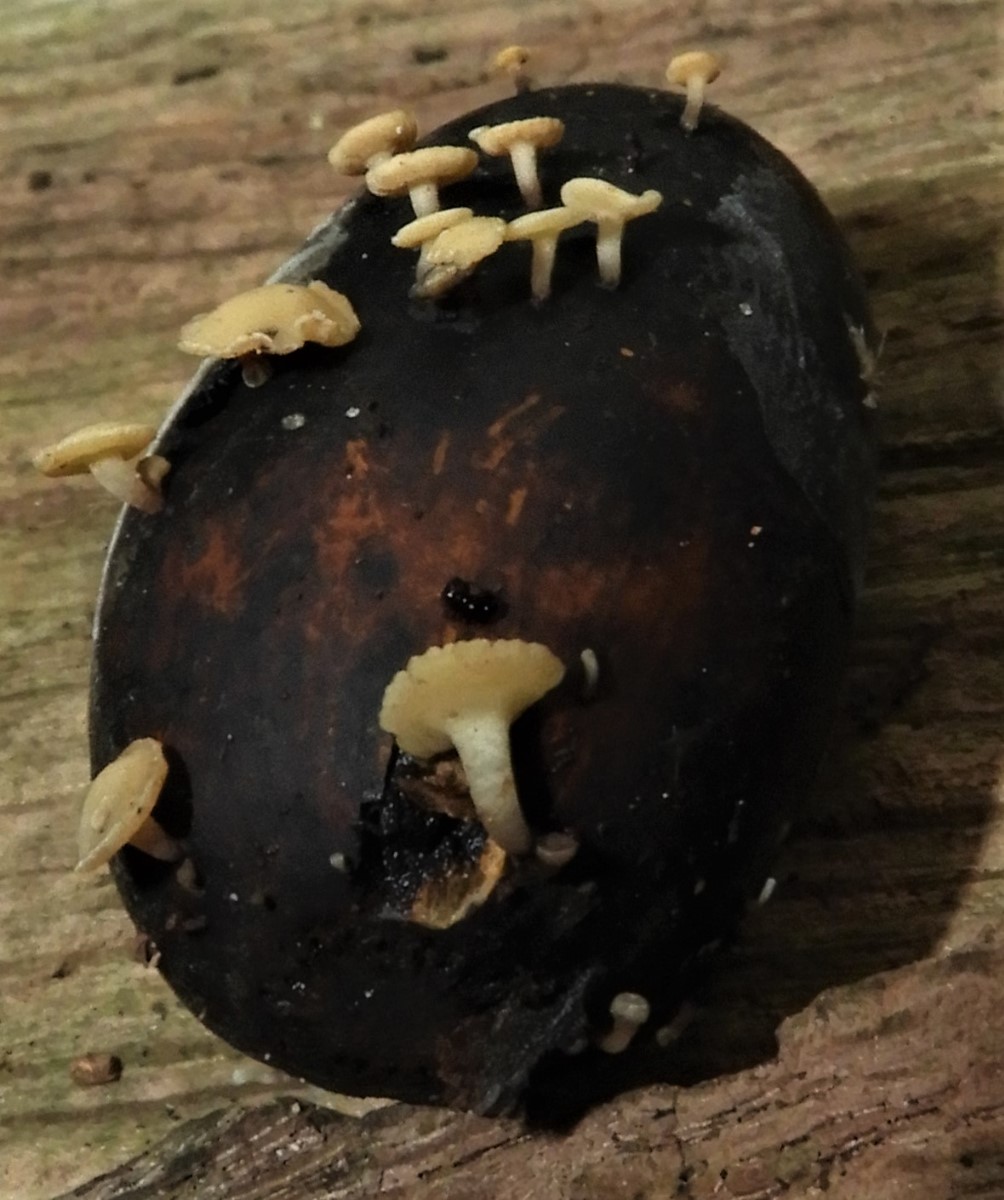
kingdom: Fungi
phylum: Ascomycota
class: Leotiomycetes
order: Helotiales
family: Helotiaceae
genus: Hymenoscyphus
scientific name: Hymenoscyphus
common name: stilkskive
